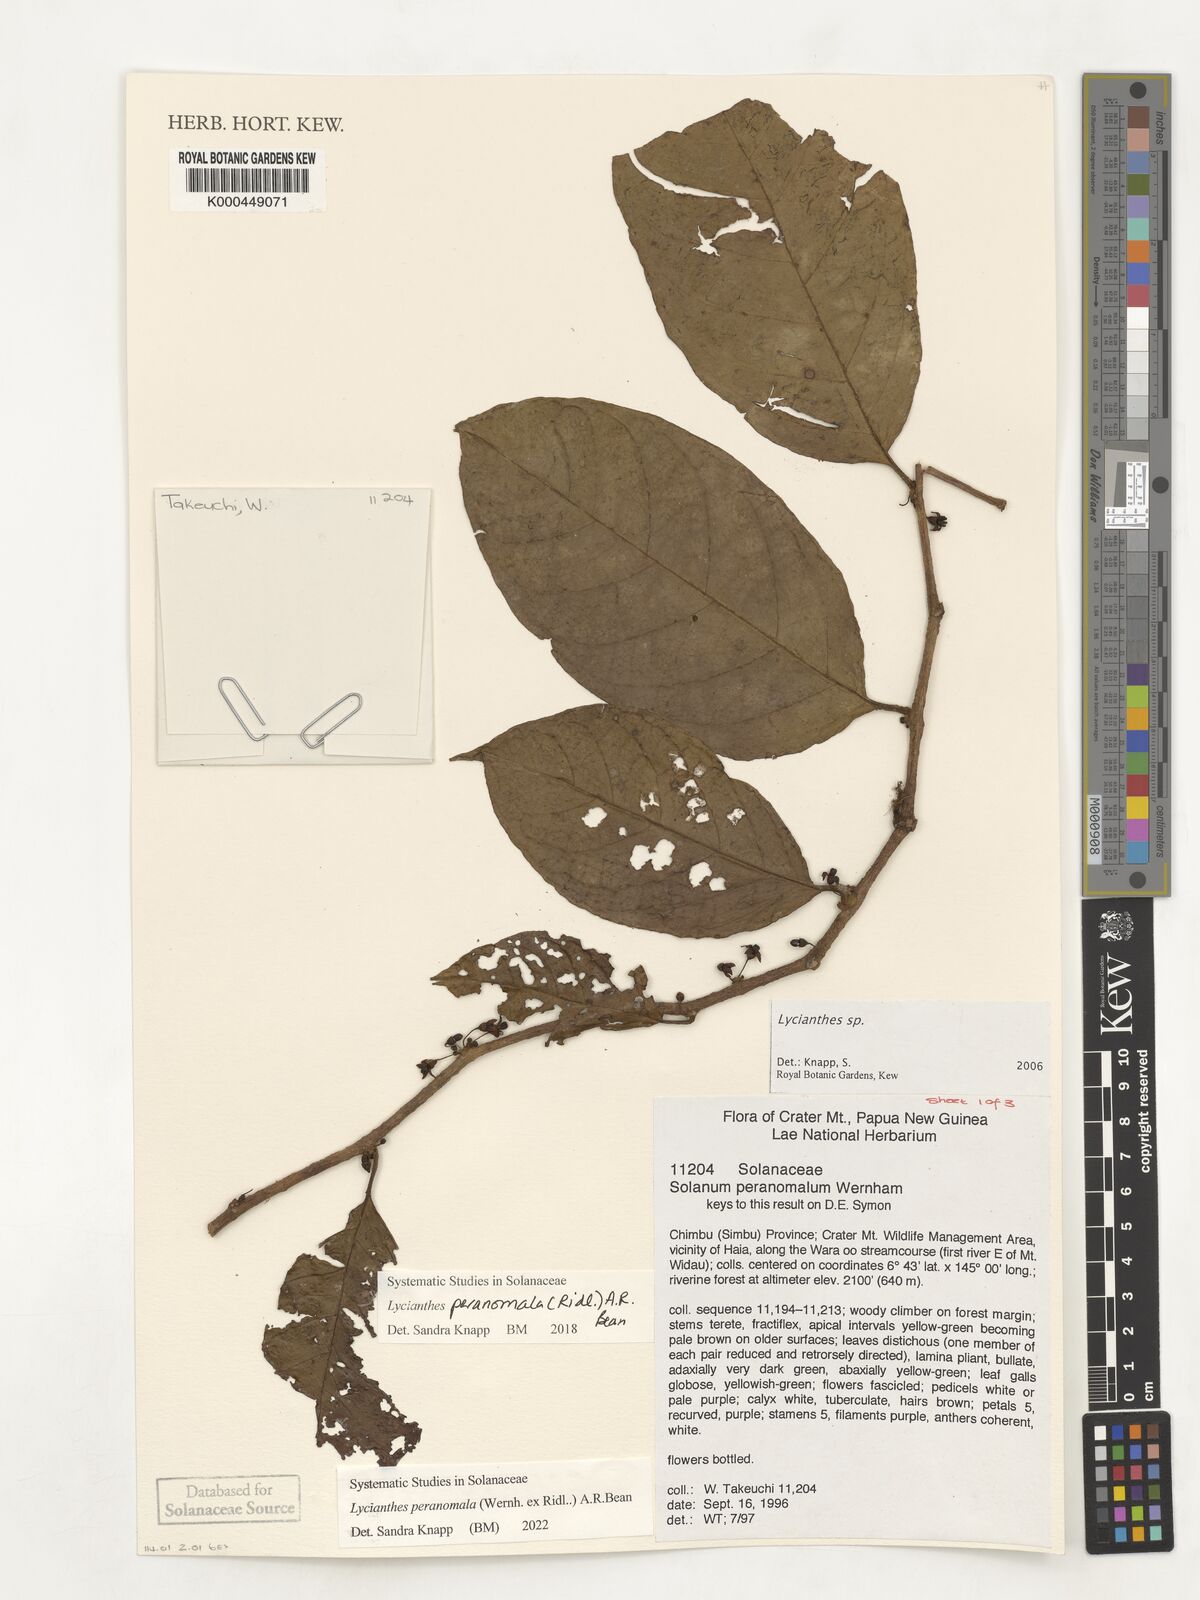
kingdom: Plantae
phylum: Tracheophyta
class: Magnoliopsida
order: Solanales
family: Solanaceae
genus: Lycianthes
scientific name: Lycianthes
